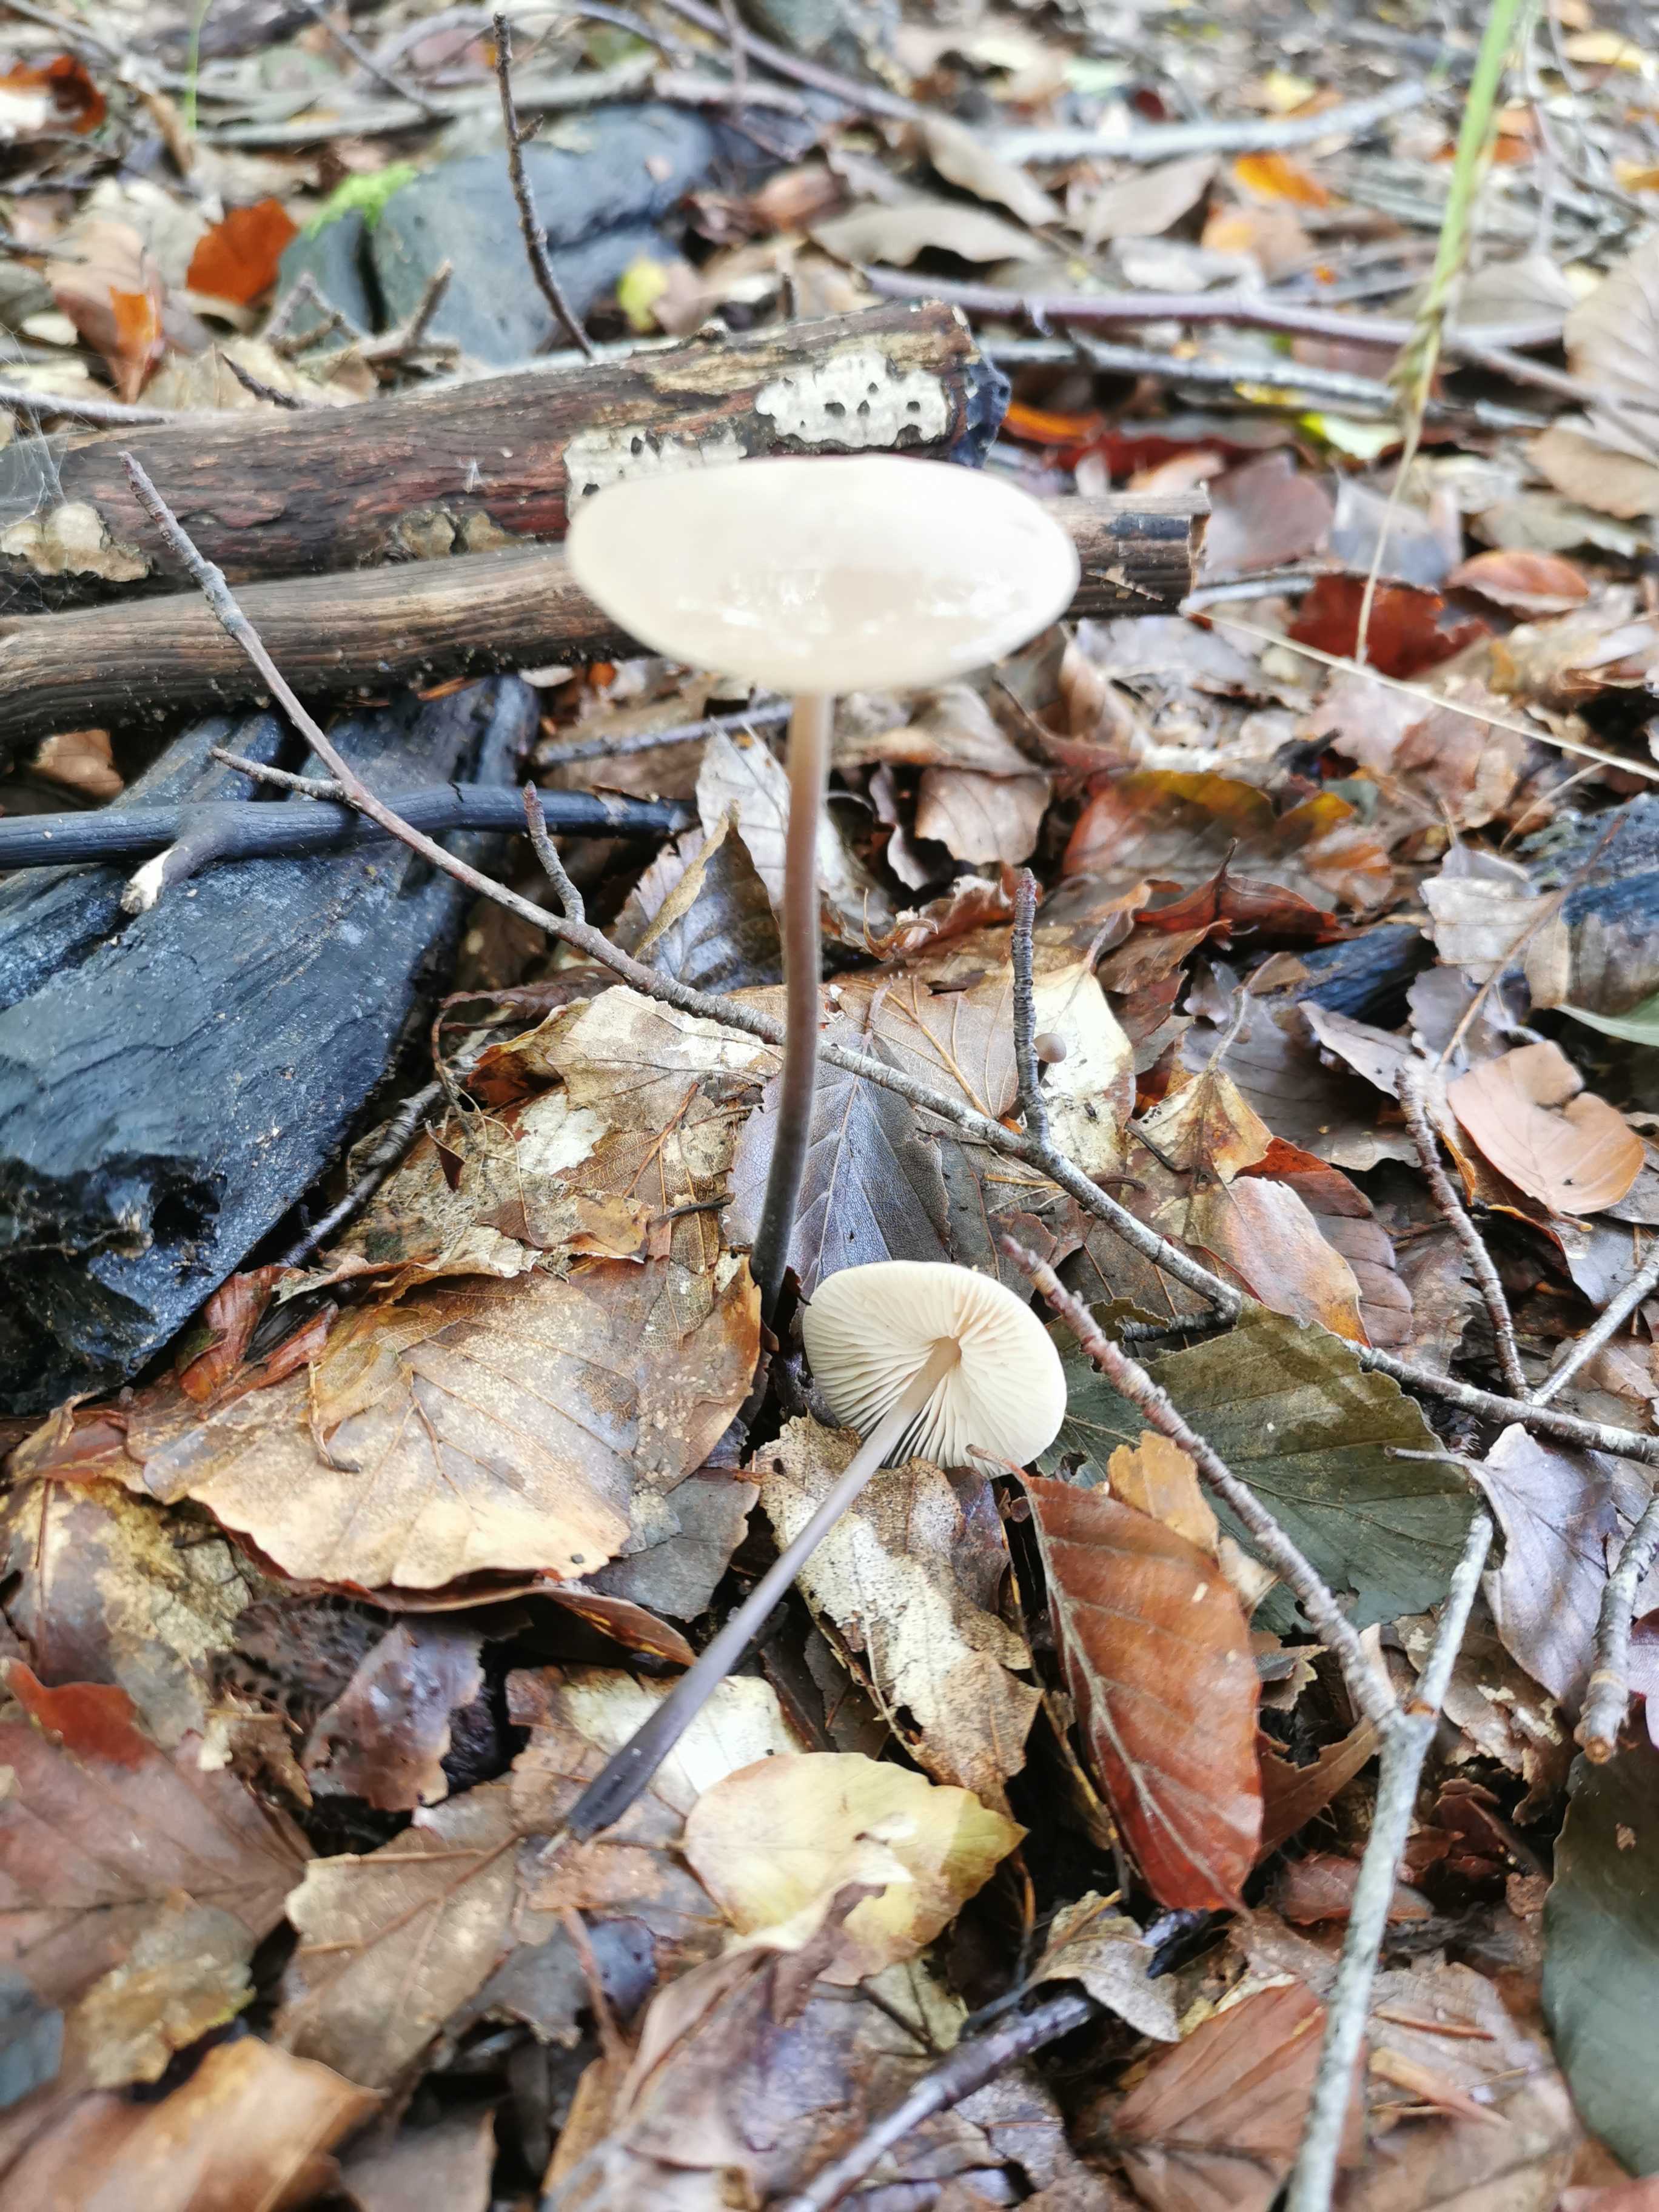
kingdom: Fungi
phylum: Basidiomycota
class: Agaricomycetes
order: Agaricales
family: Omphalotaceae
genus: Mycetinis
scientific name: Mycetinis alliaceus
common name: stor løghat
